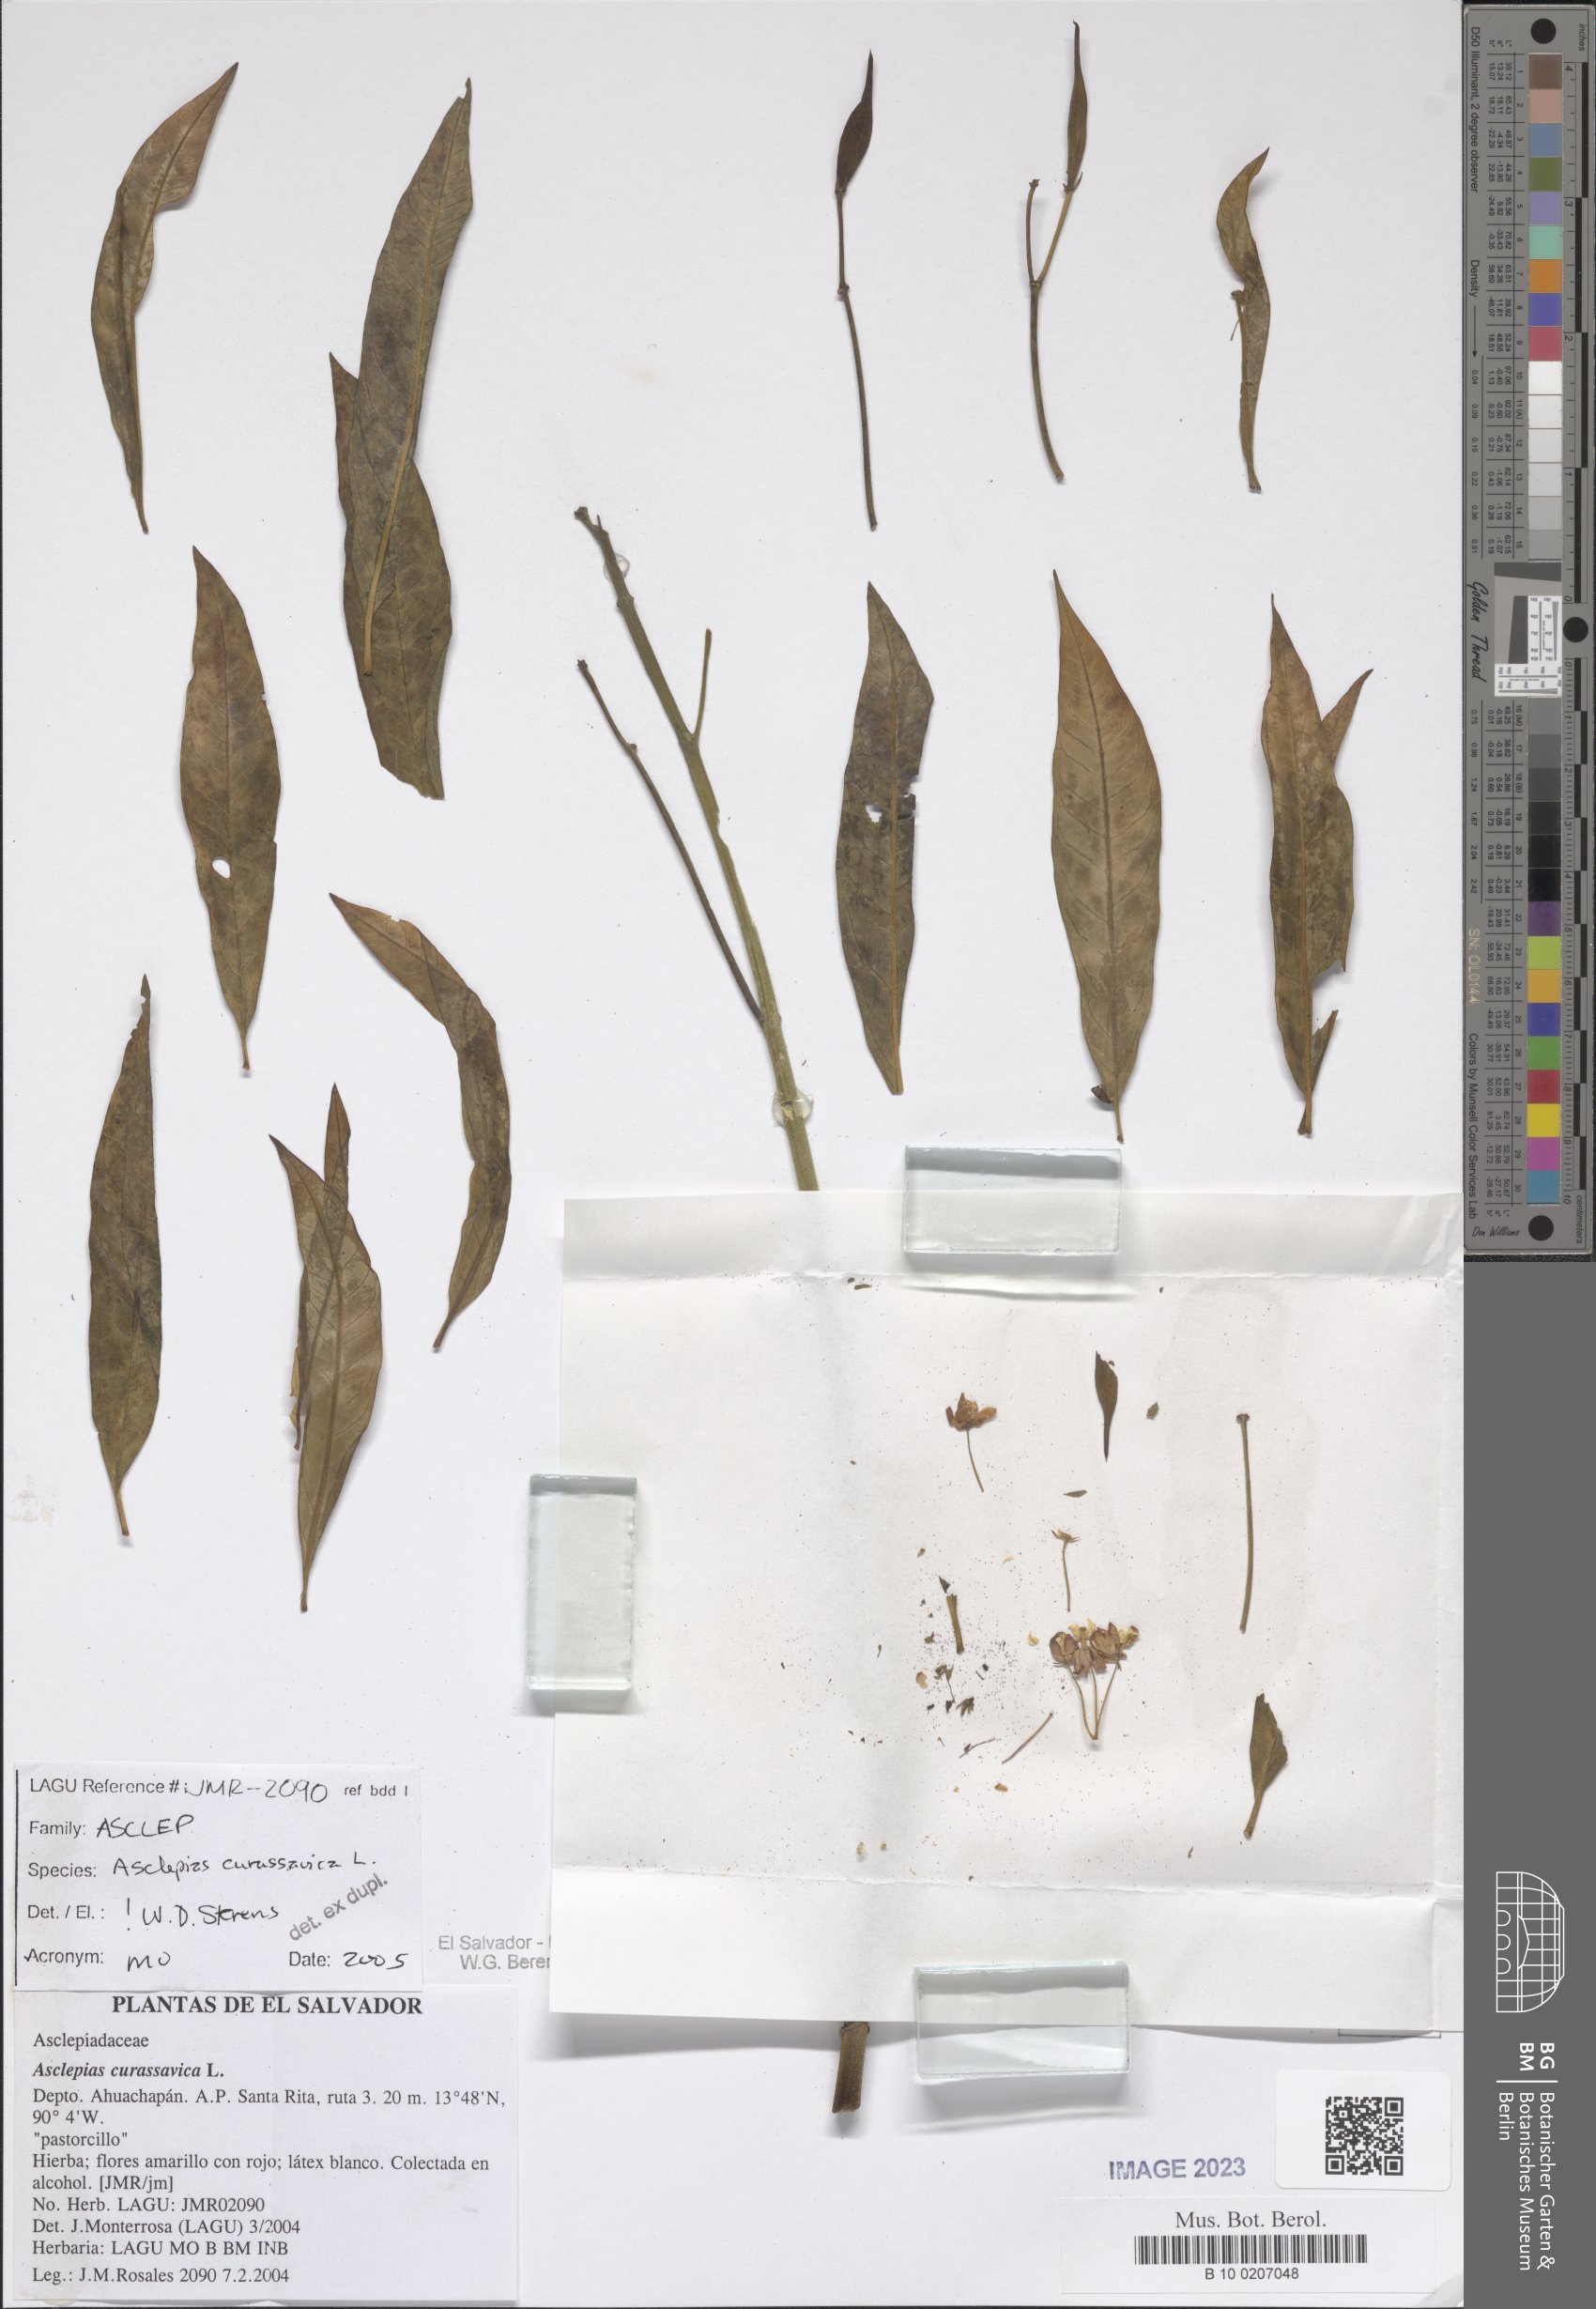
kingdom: Plantae
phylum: Tracheophyta
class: Magnoliopsida
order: Gentianales
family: Apocynaceae
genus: Asclepias
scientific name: Asclepias curassavica
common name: Bloodflower
